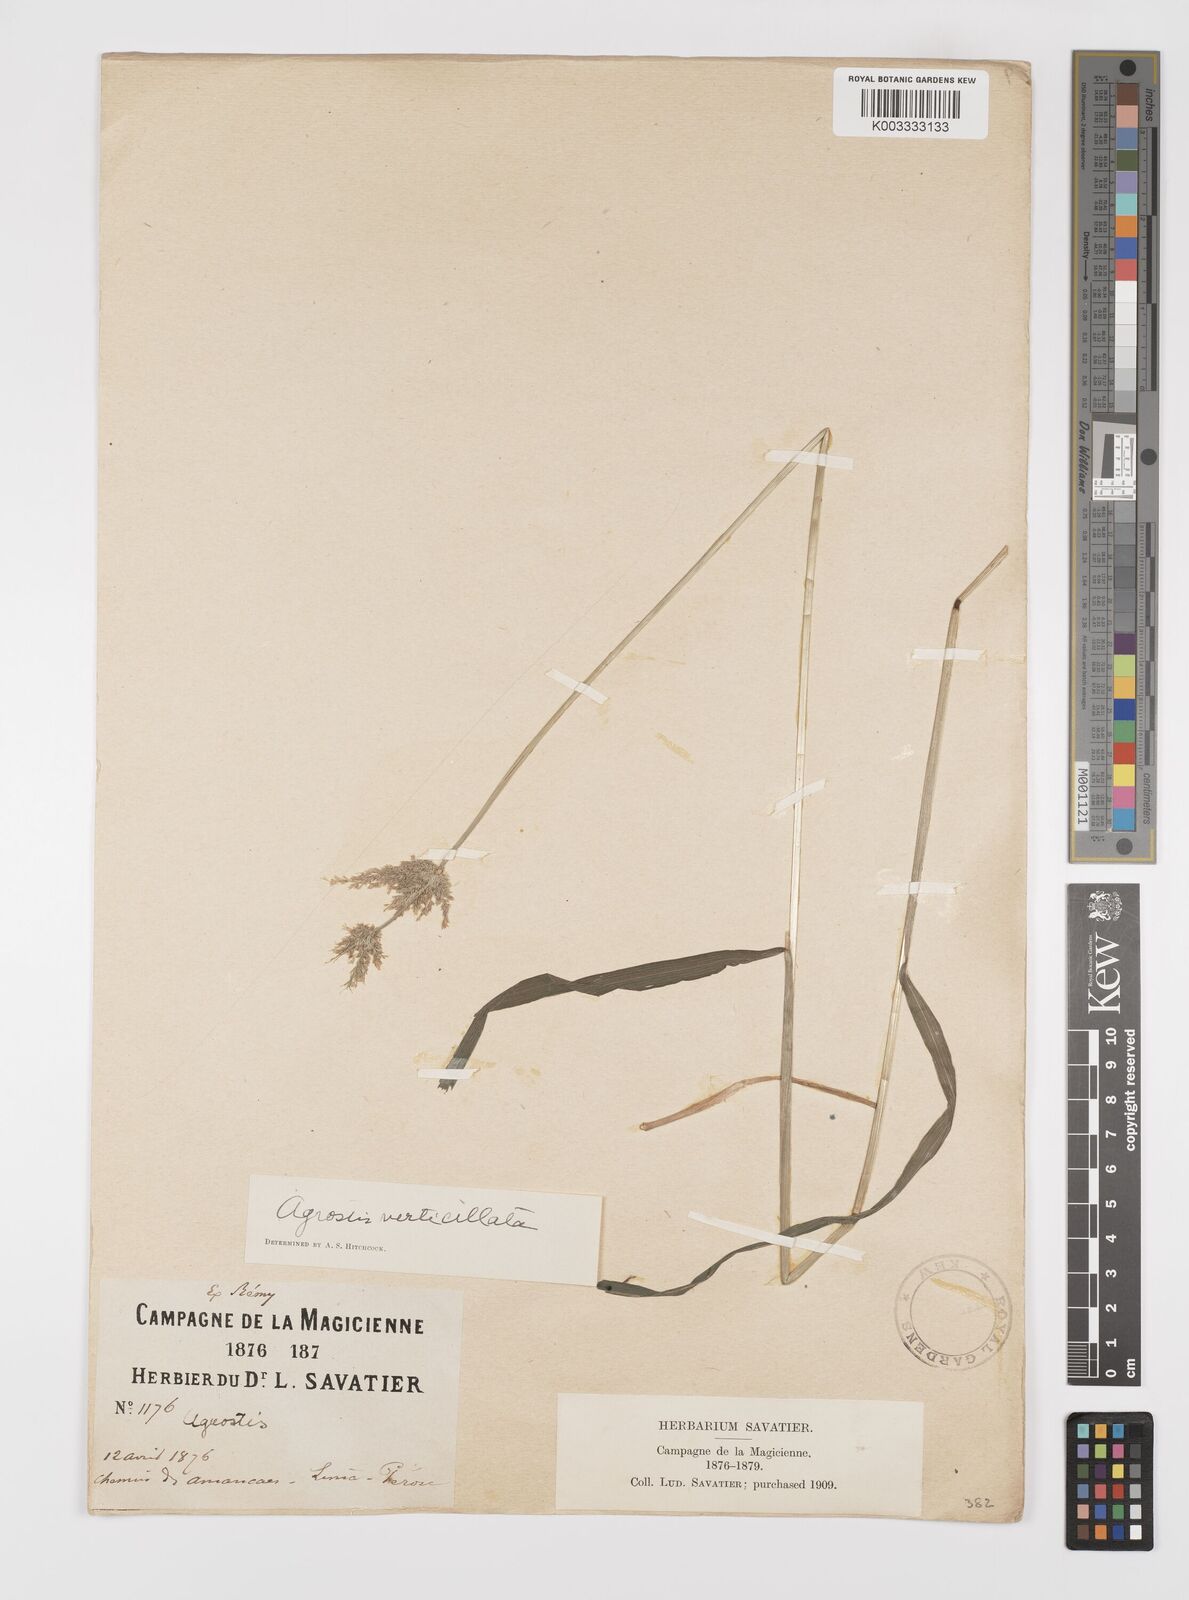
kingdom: Plantae
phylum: Tracheophyta
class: Liliopsida
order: Poales
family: Poaceae
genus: Polypogon
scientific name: Polypogon viridis
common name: Water bent
